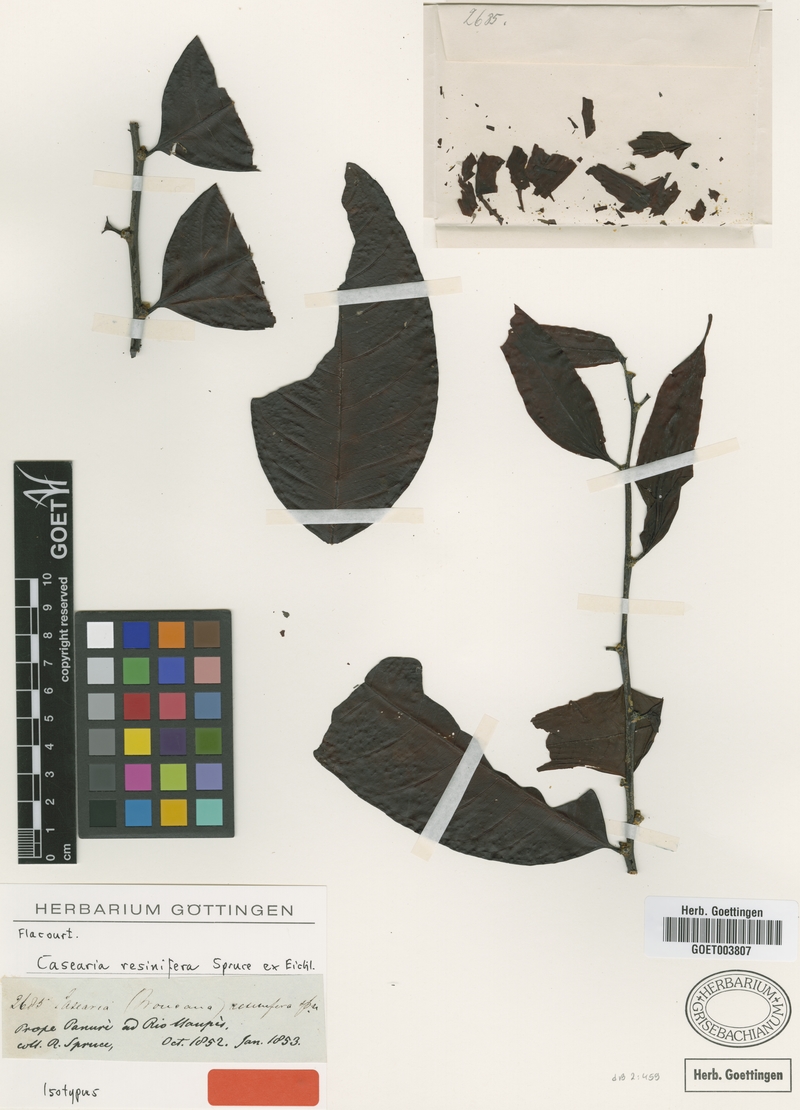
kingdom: Plantae
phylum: Tracheophyta
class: Magnoliopsida
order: Malpighiales
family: Salicaceae
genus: Casearia
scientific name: Casearia resinifera
